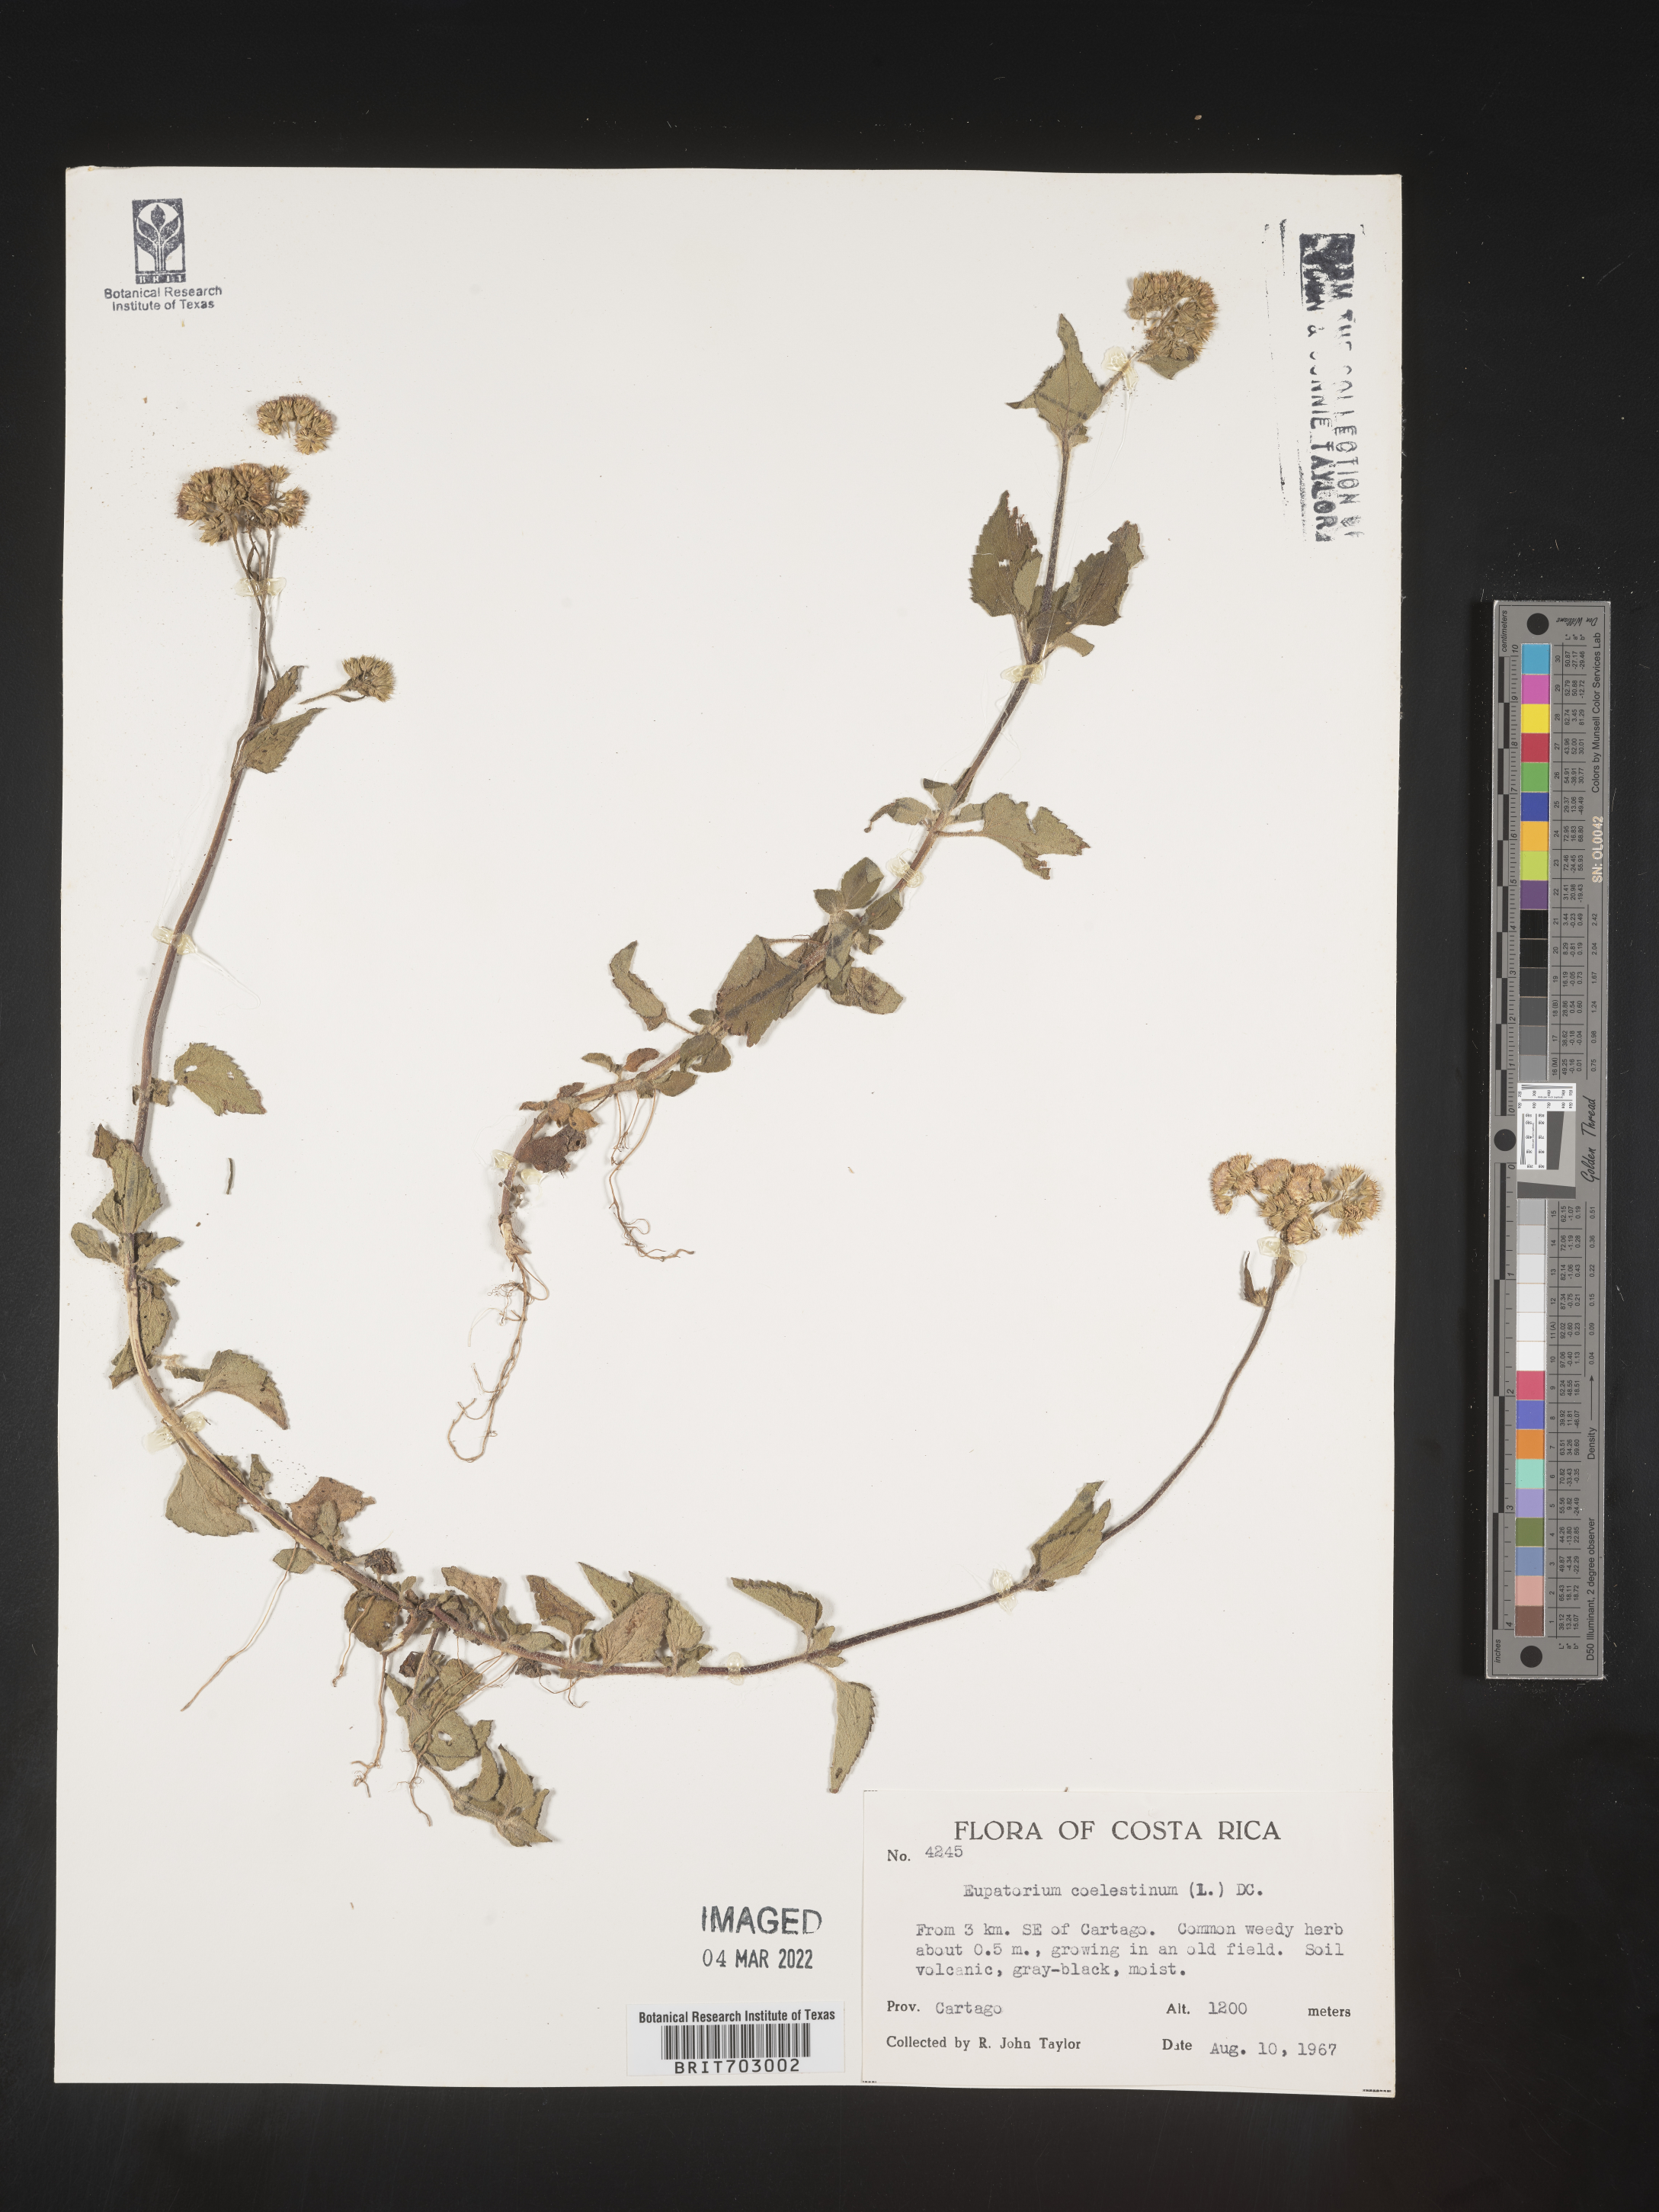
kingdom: Plantae
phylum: Tracheophyta
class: Magnoliopsida
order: Asterales
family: Asteraceae
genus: Eupatorium
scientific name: Eupatorium
